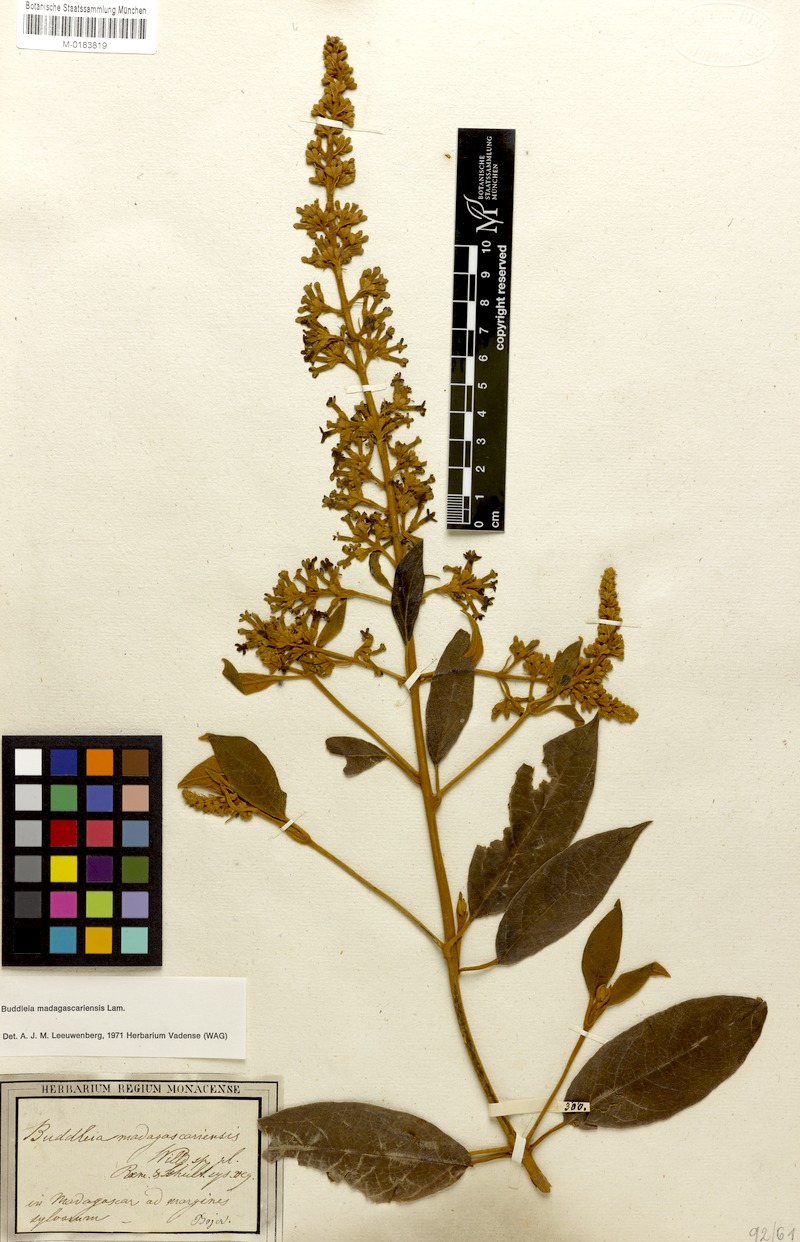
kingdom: Plantae
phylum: Tracheophyta
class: Magnoliopsida
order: Lamiales
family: Scrophulariaceae
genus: Buddleja
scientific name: Buddleja madagascariensis
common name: Smokebush
